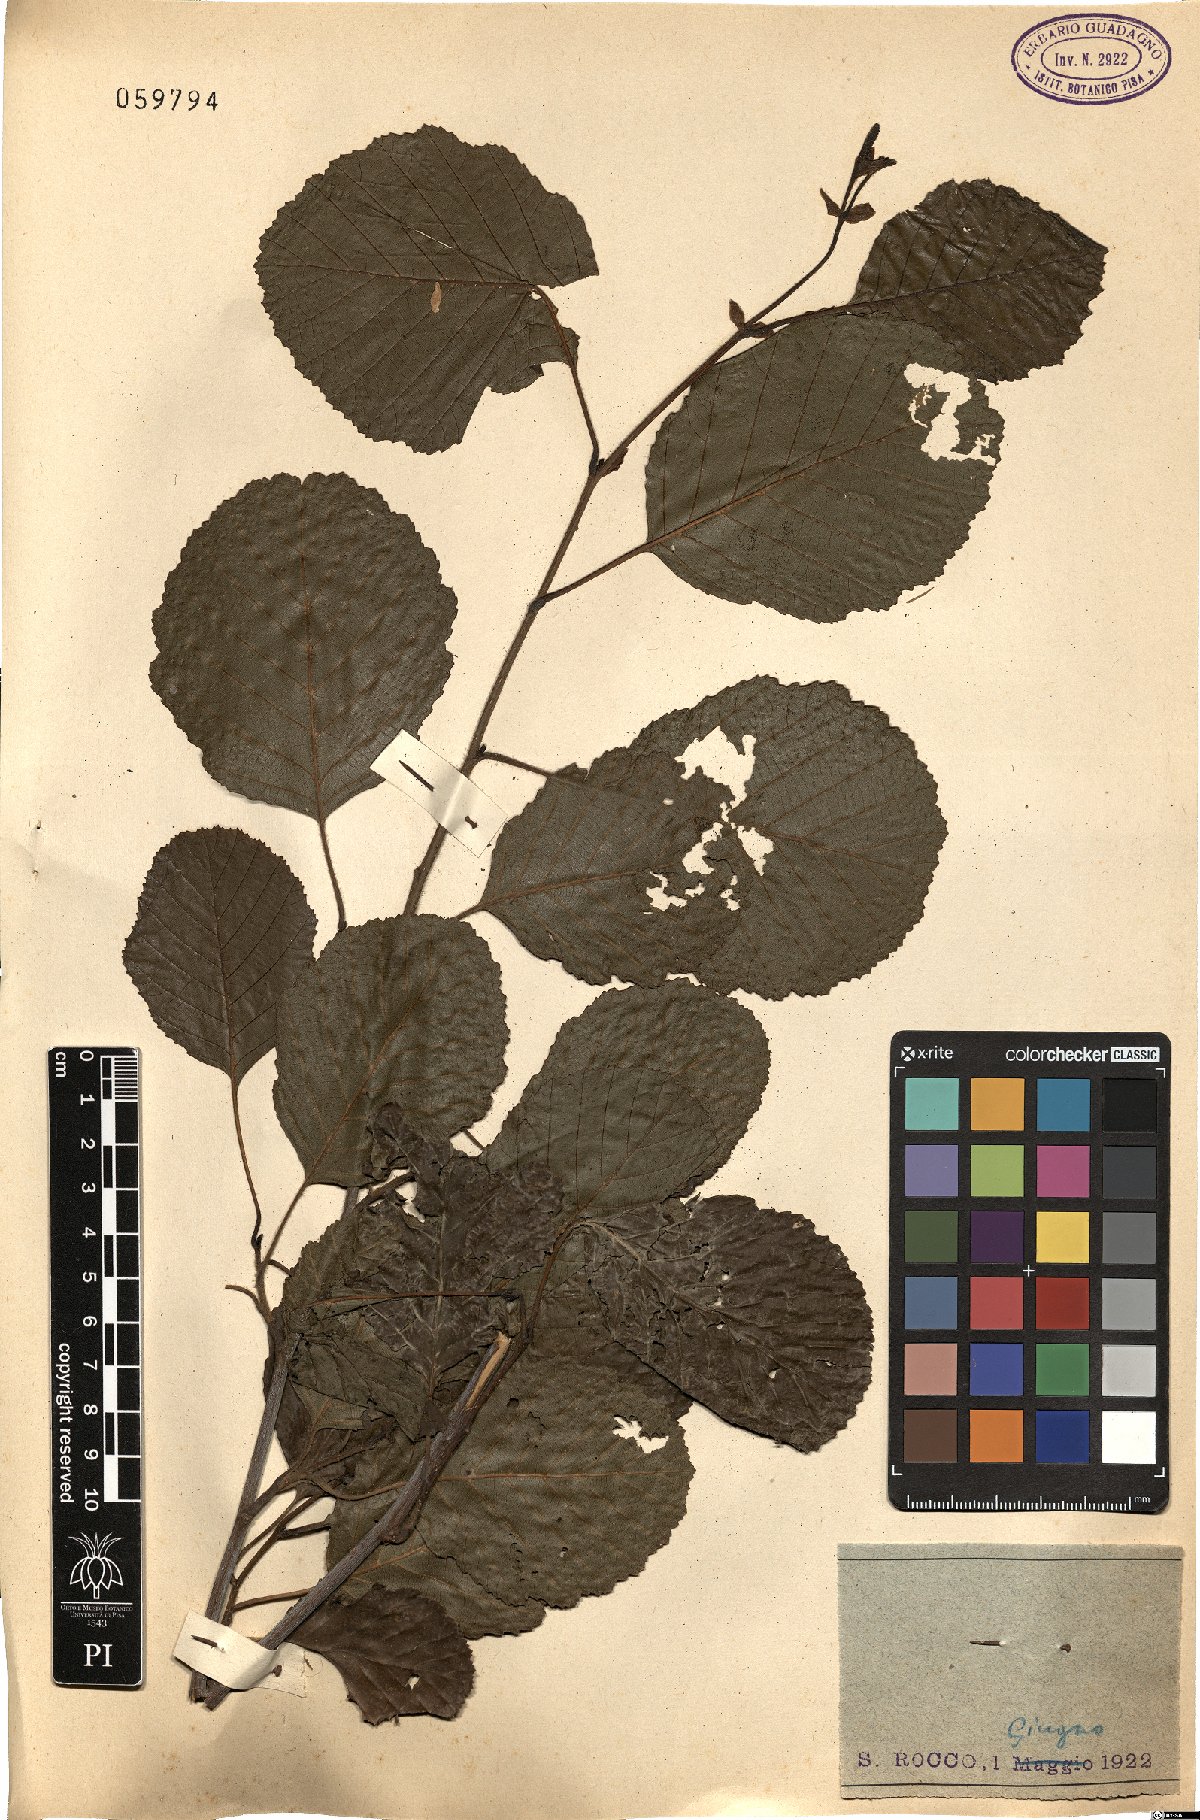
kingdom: Plantae
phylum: Tracheophyta
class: Magnoliopsida
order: Fagales
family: Betulaceae
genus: Alnus
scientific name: Alnus glutinosa
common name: Black alder
